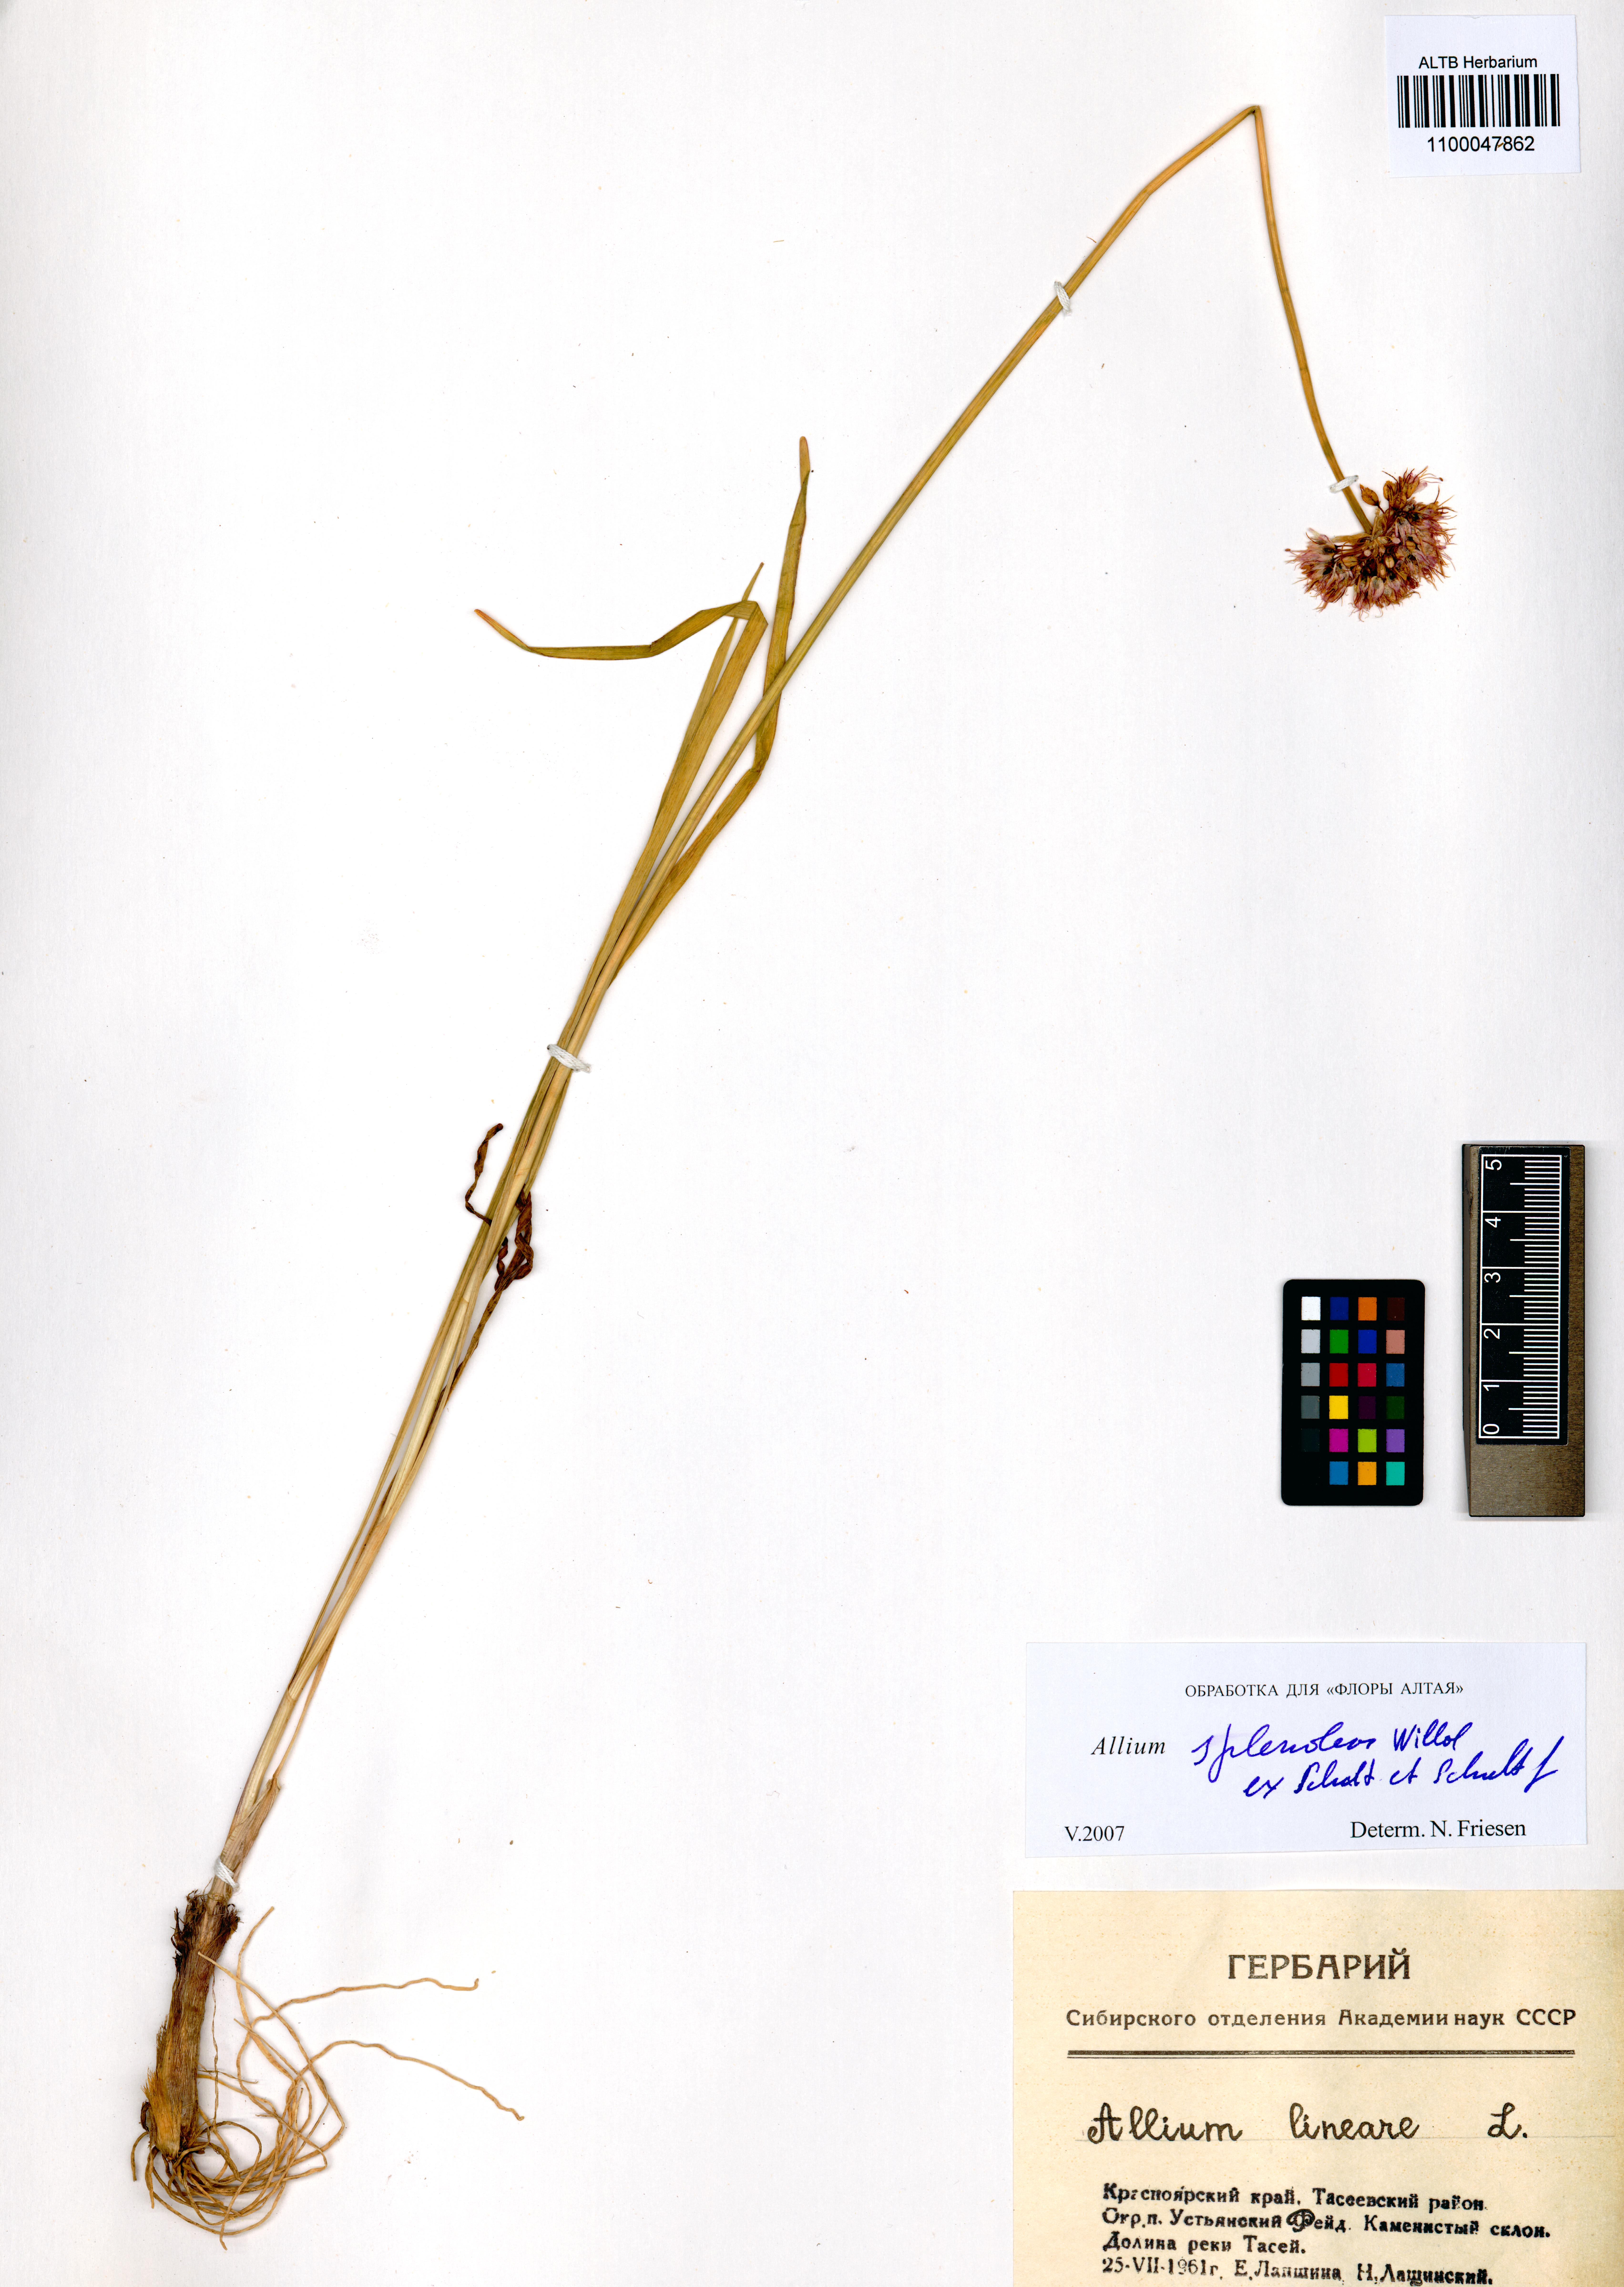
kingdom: Plantae
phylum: Tracheophyta
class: Liliopsida
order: Asparagales
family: Amaryllidaceae
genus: Allium
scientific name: Allium splendens
